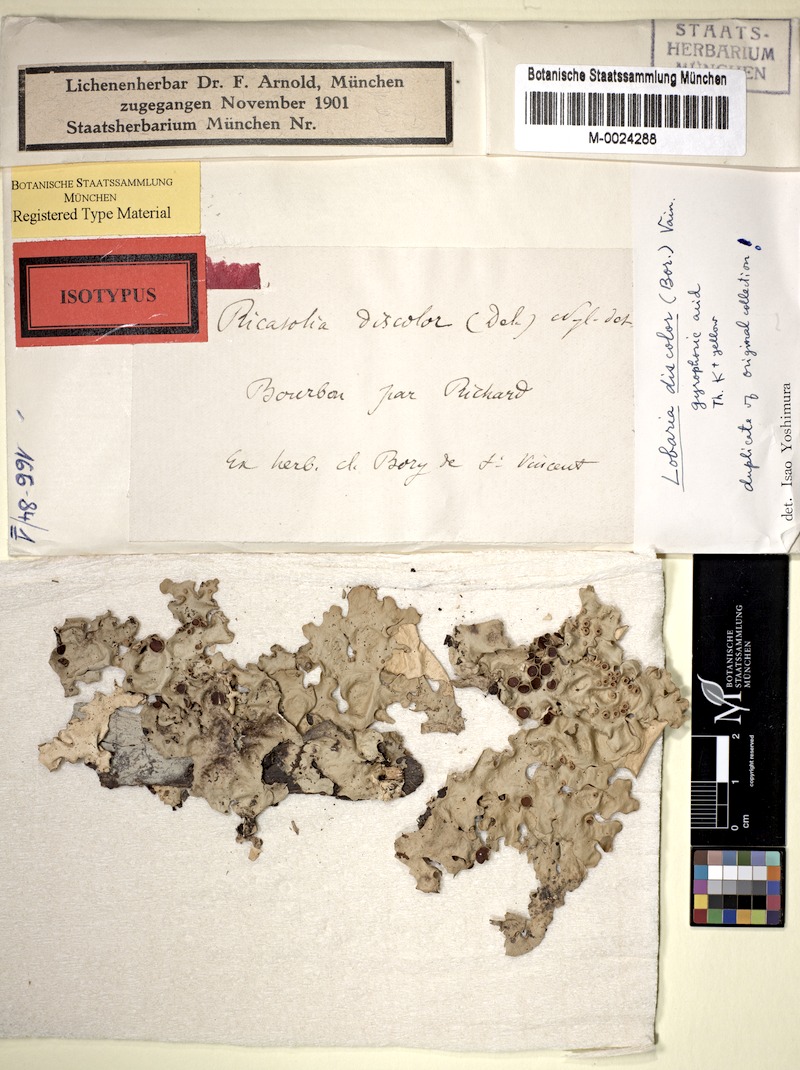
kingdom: Fungi
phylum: Ascomycota
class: Lecanoromycetes
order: Peltigerales
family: Lobariaceae
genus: Lobaria
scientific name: Lobaria discolor
